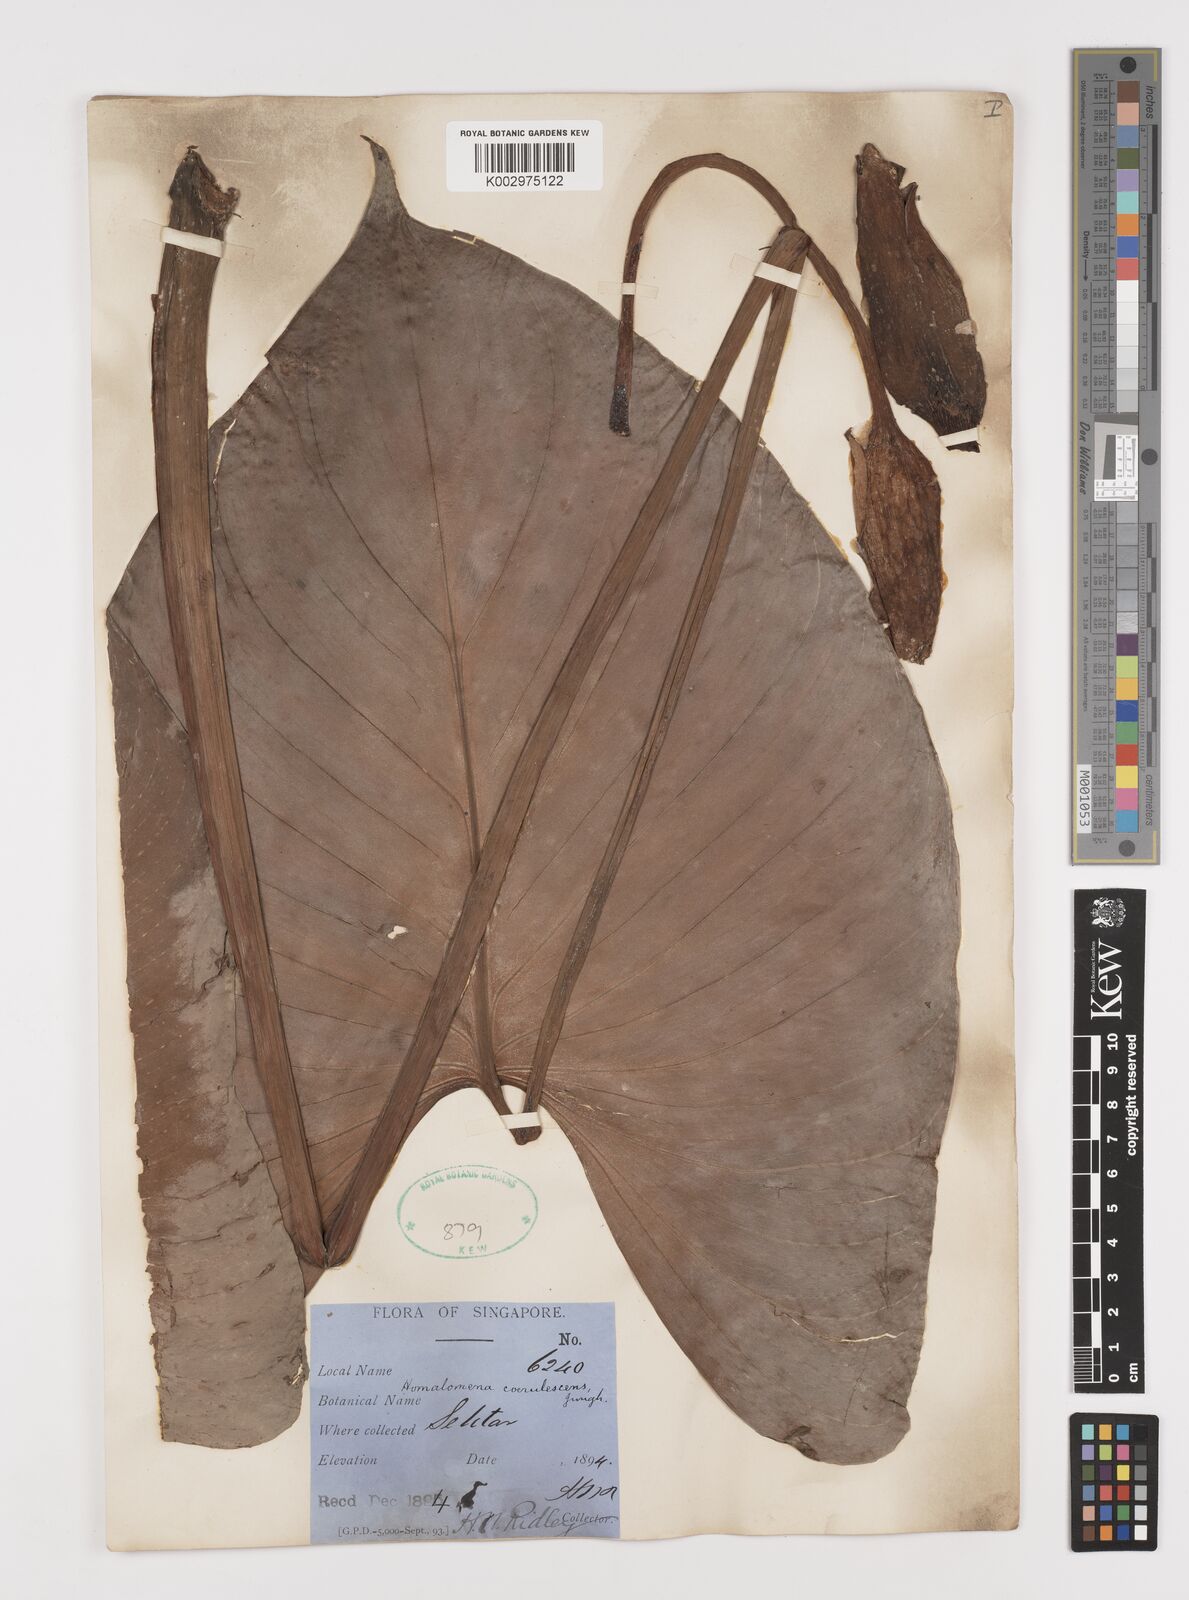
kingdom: Plantae
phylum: Tracheophyta
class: Liliopsida
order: Alismatales
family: Araceae
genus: Homalomena
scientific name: Homalomena pendula
